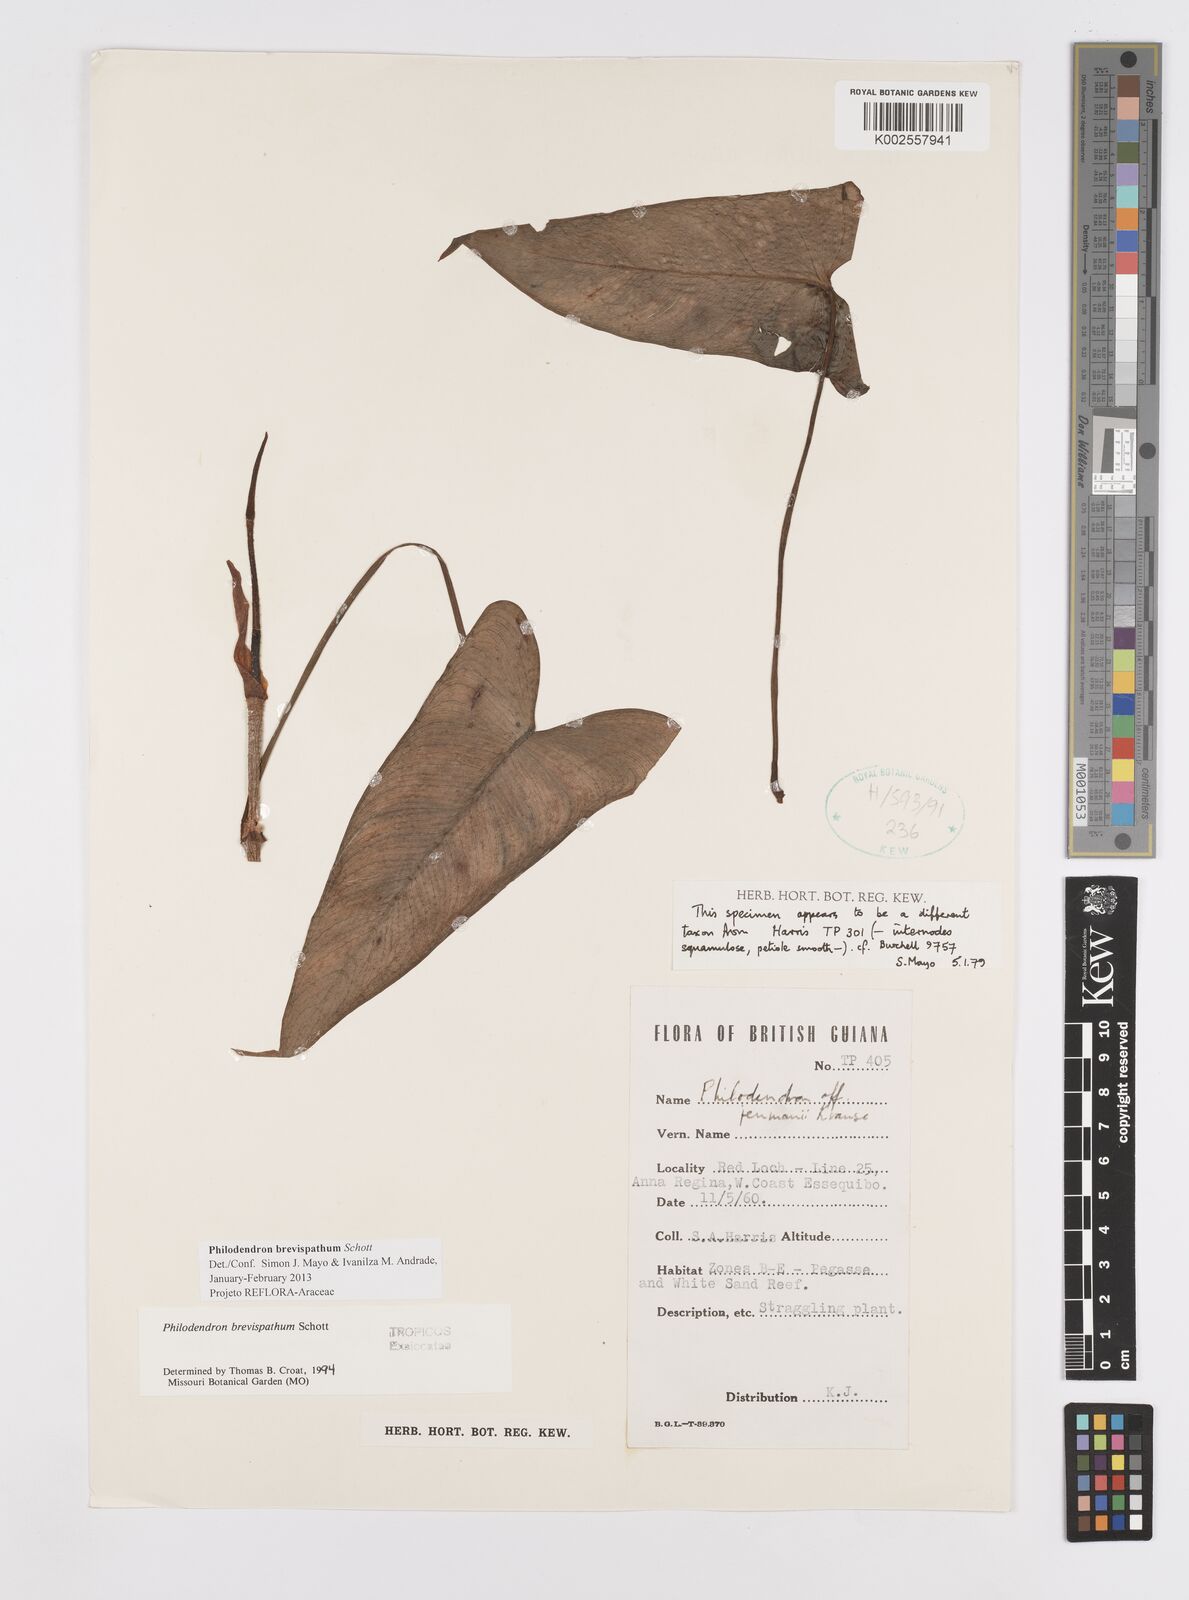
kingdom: Plantae
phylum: Tracheophyta
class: Liliopsida
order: Alismatales
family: Araceae
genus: Philodendron
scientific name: Philodendron brevispathum
